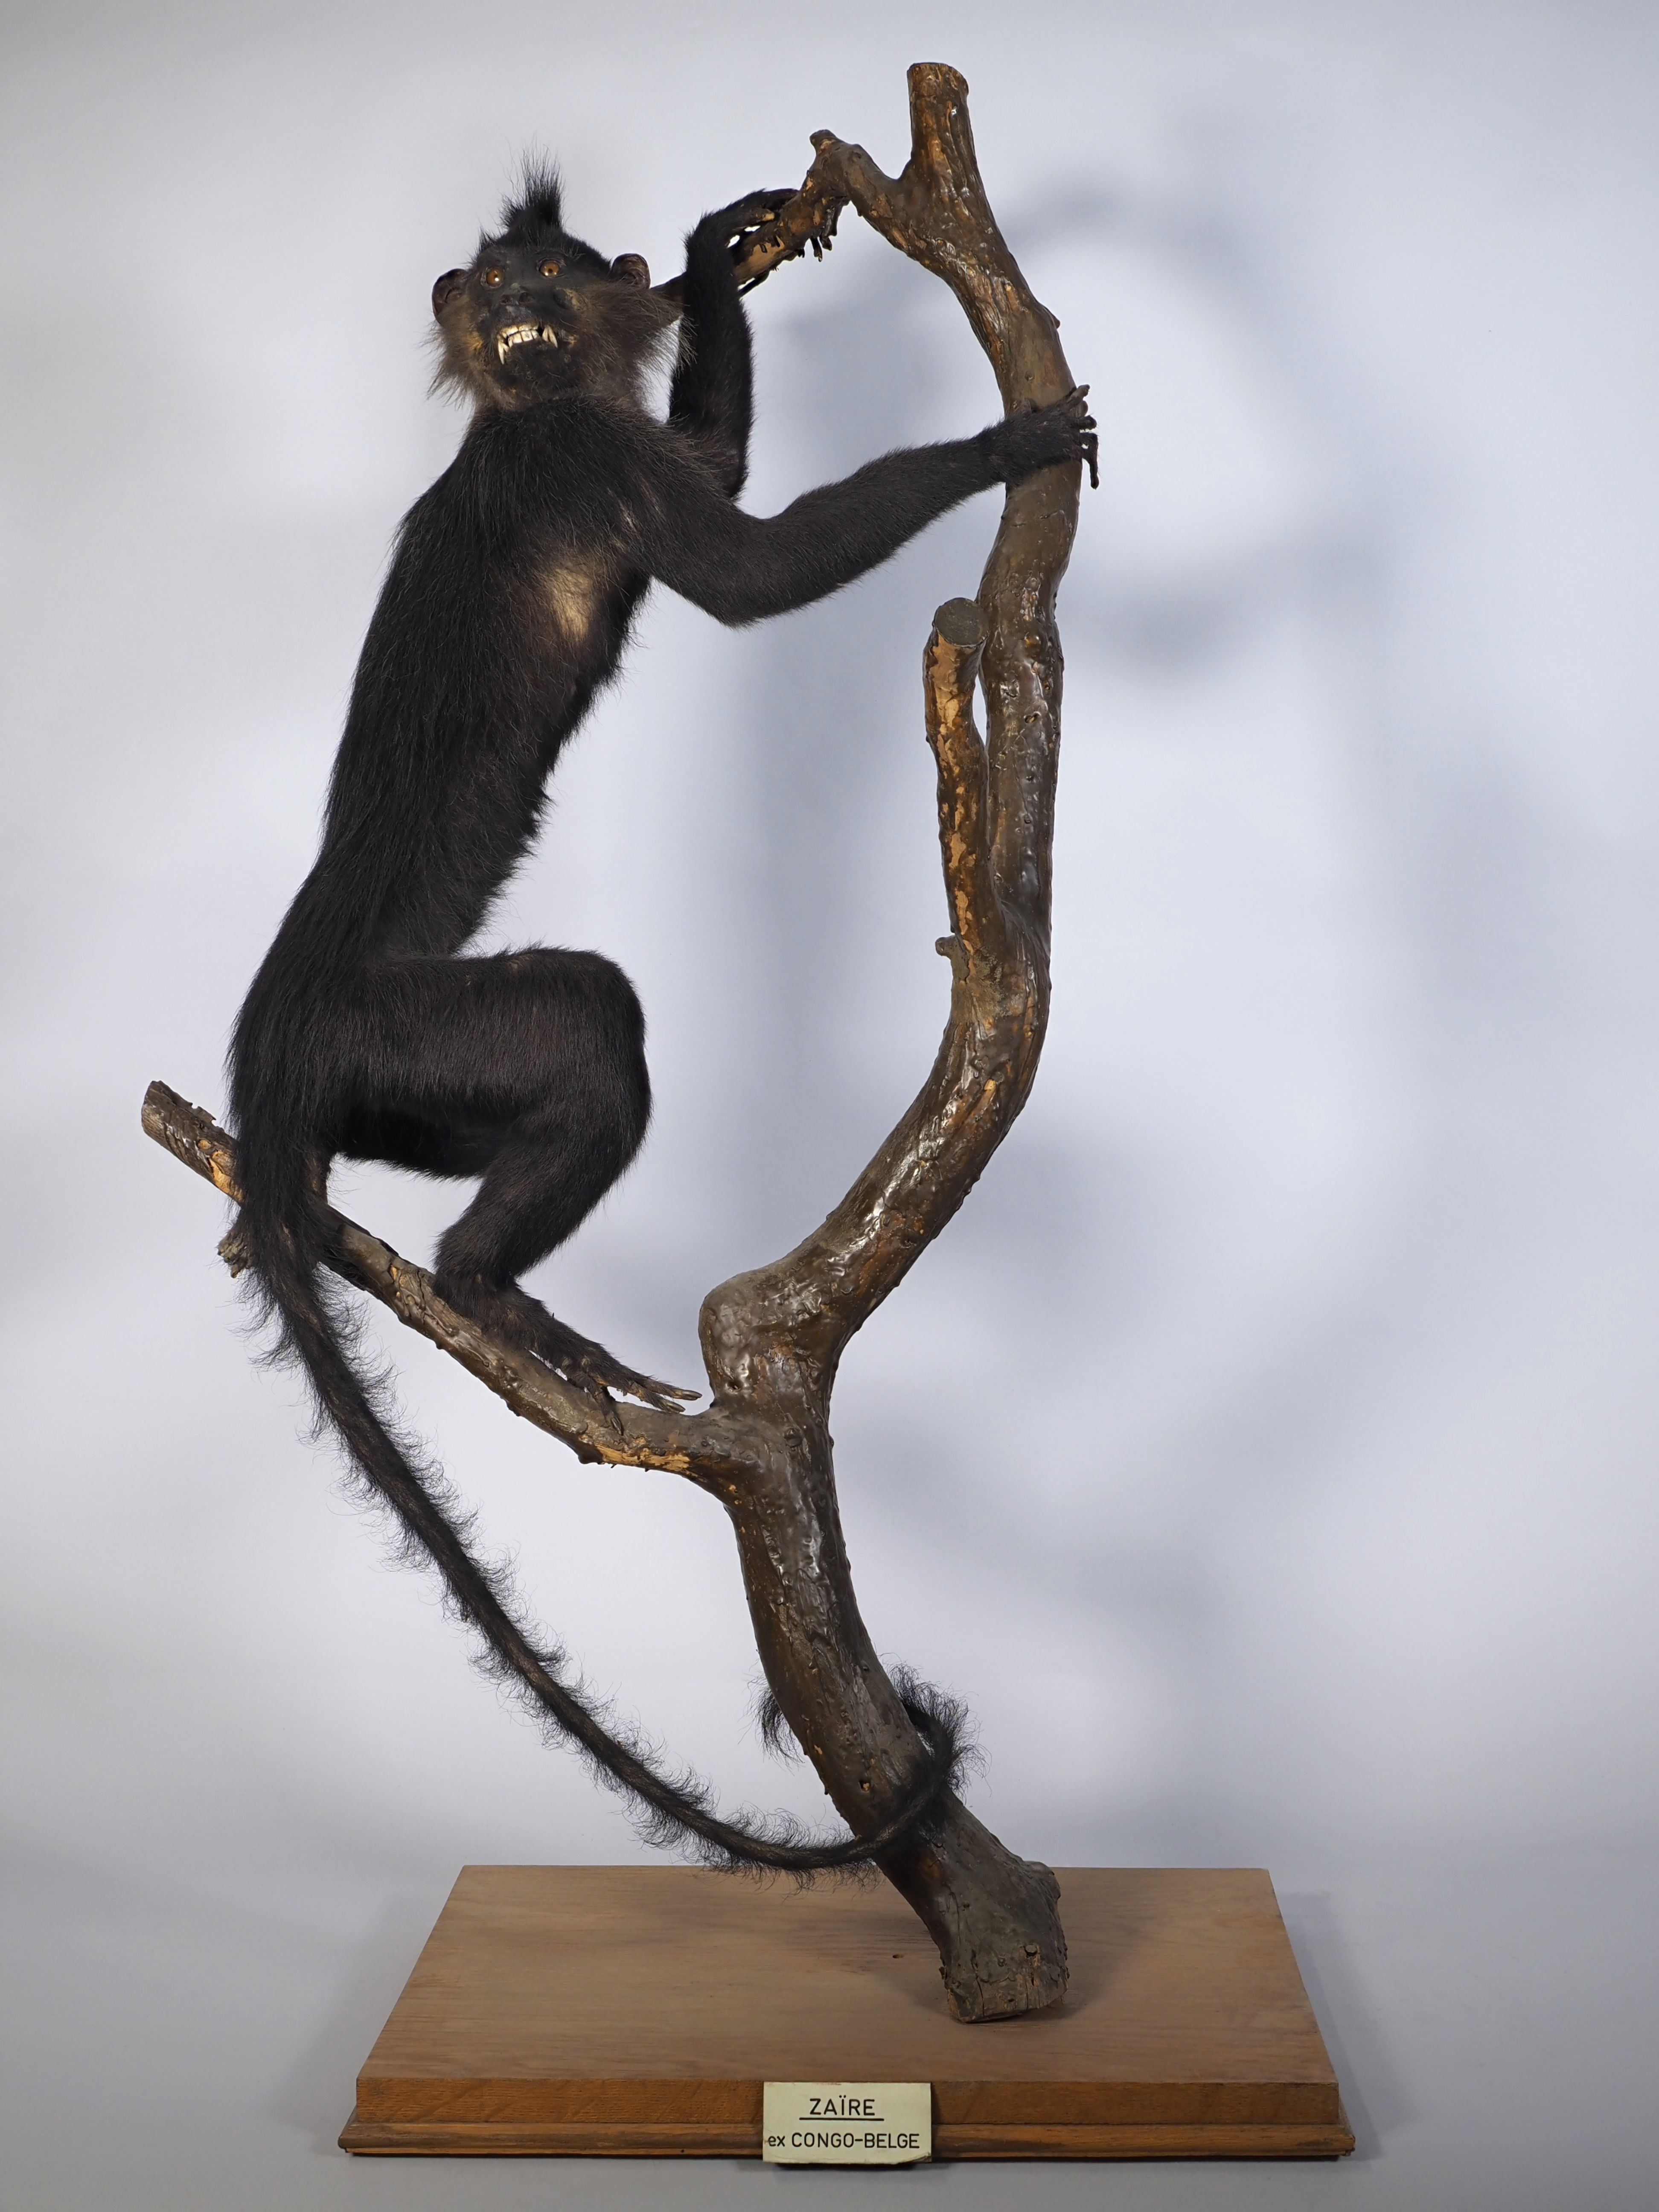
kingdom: Animalia
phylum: Chordata
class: Mammalia
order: Primates
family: Cercopithecidae
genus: Lophocebus
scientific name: Lophocebus aterrimus
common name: Black crested mangabey
